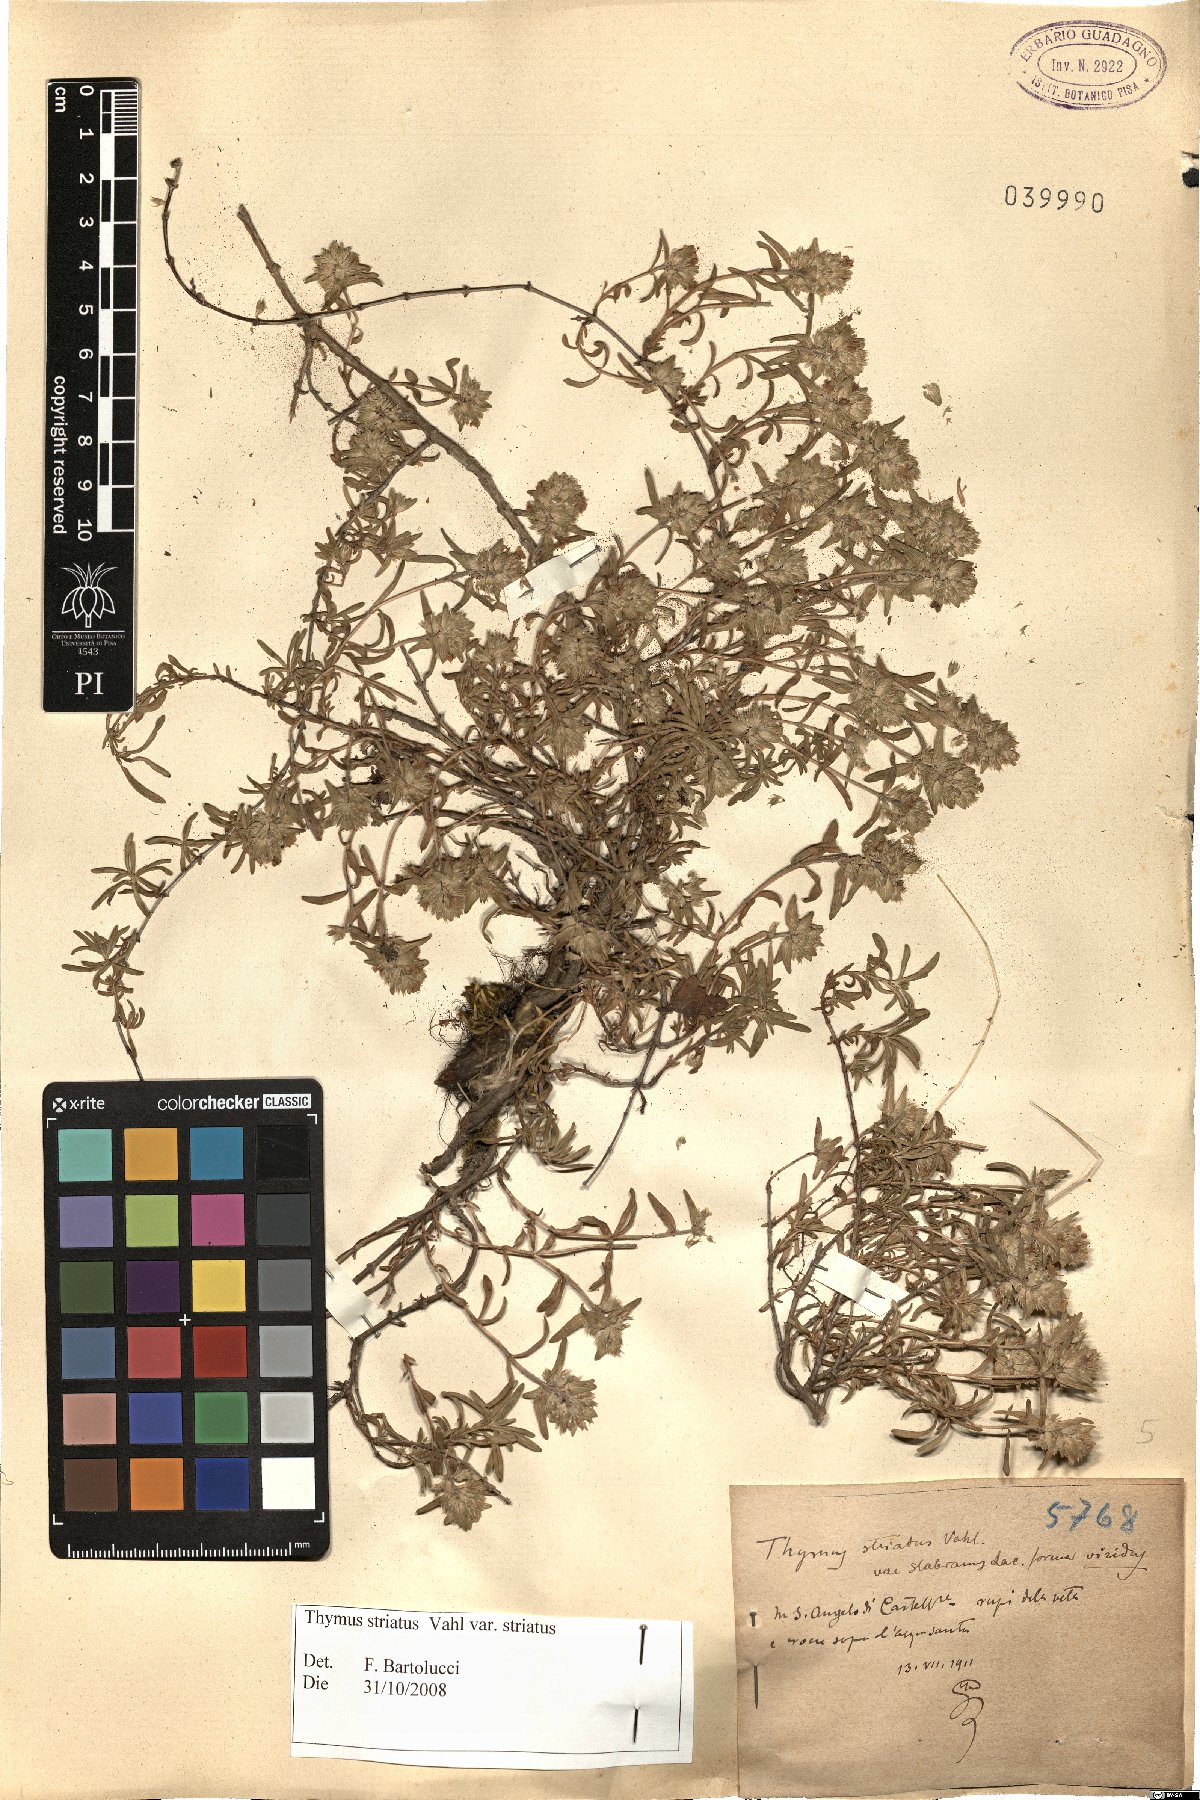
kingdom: Plantae
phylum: Tracheophyta
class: Magnoliopsida
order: Lamiales
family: Lamiaceae
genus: Thymus
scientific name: Thymus striatus
